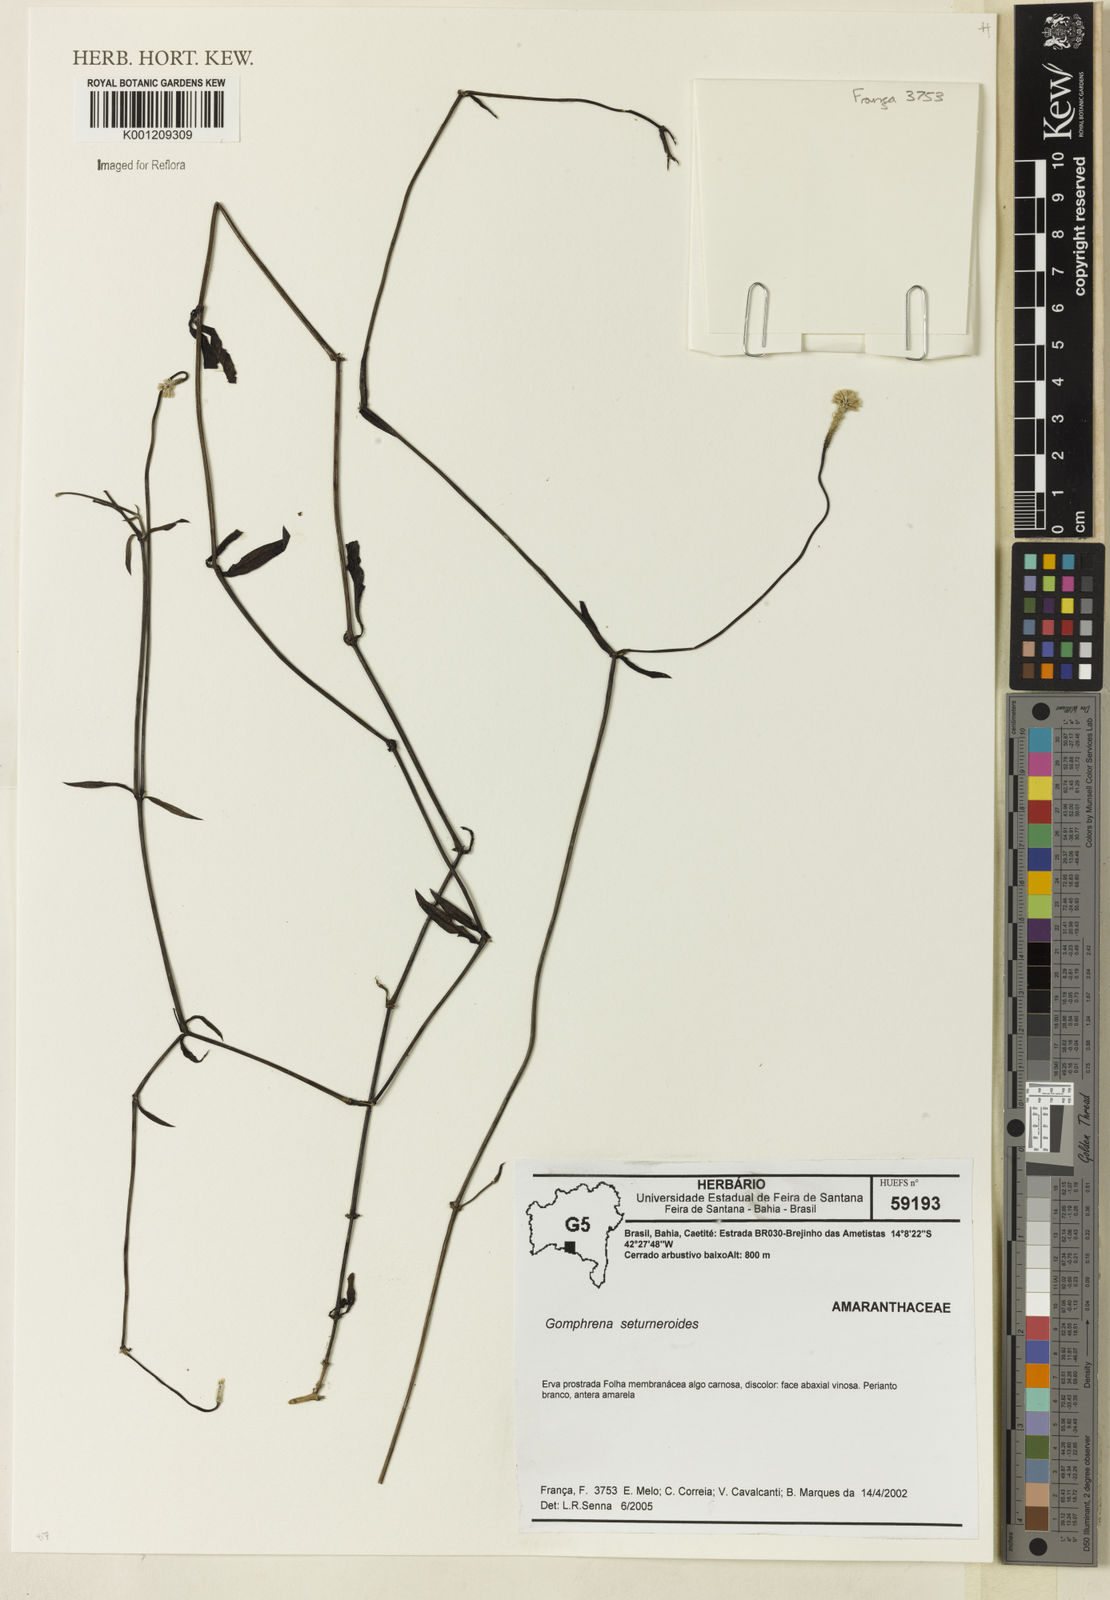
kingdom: Plantae
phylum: Tracheophyta
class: Magnoliopsida
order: Caryophyllales
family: Amaranthaceae
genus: Gomphrena
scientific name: Gomphrena serturneroides
